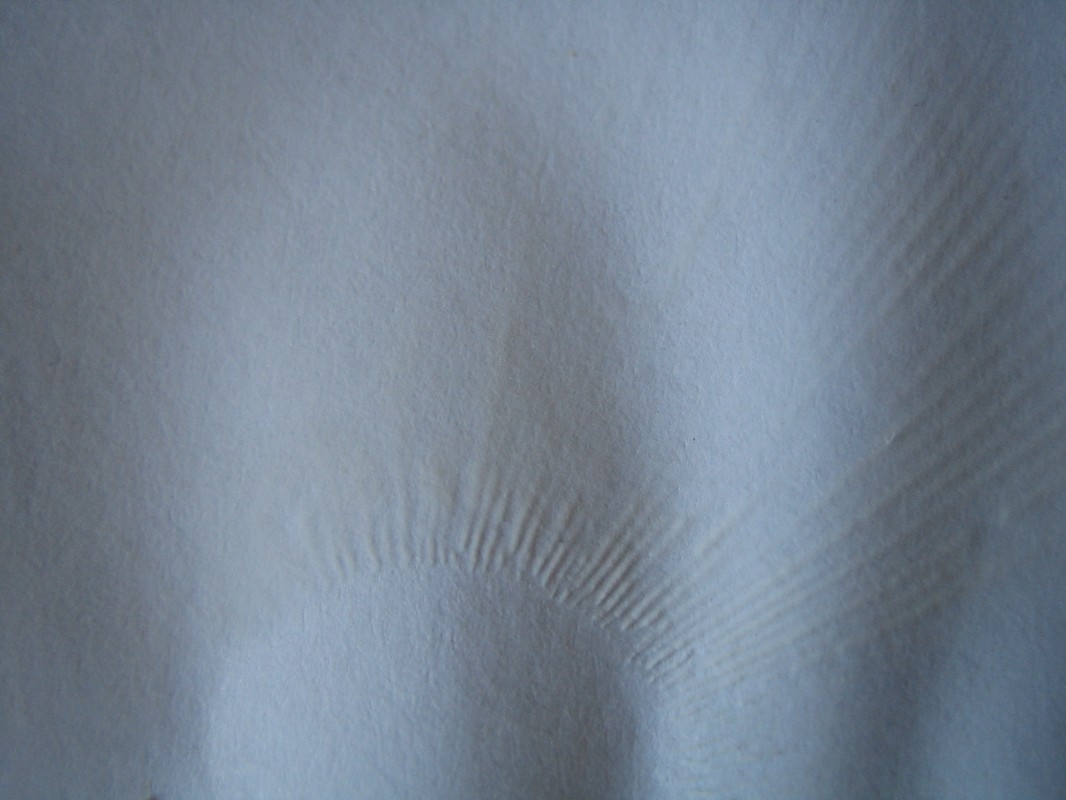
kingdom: Fungi
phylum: Basidiomycota
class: Agaricomycetes
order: Russulales
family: Russulaceae
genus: Russula
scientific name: Russula vesca
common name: spiselig skørhat
